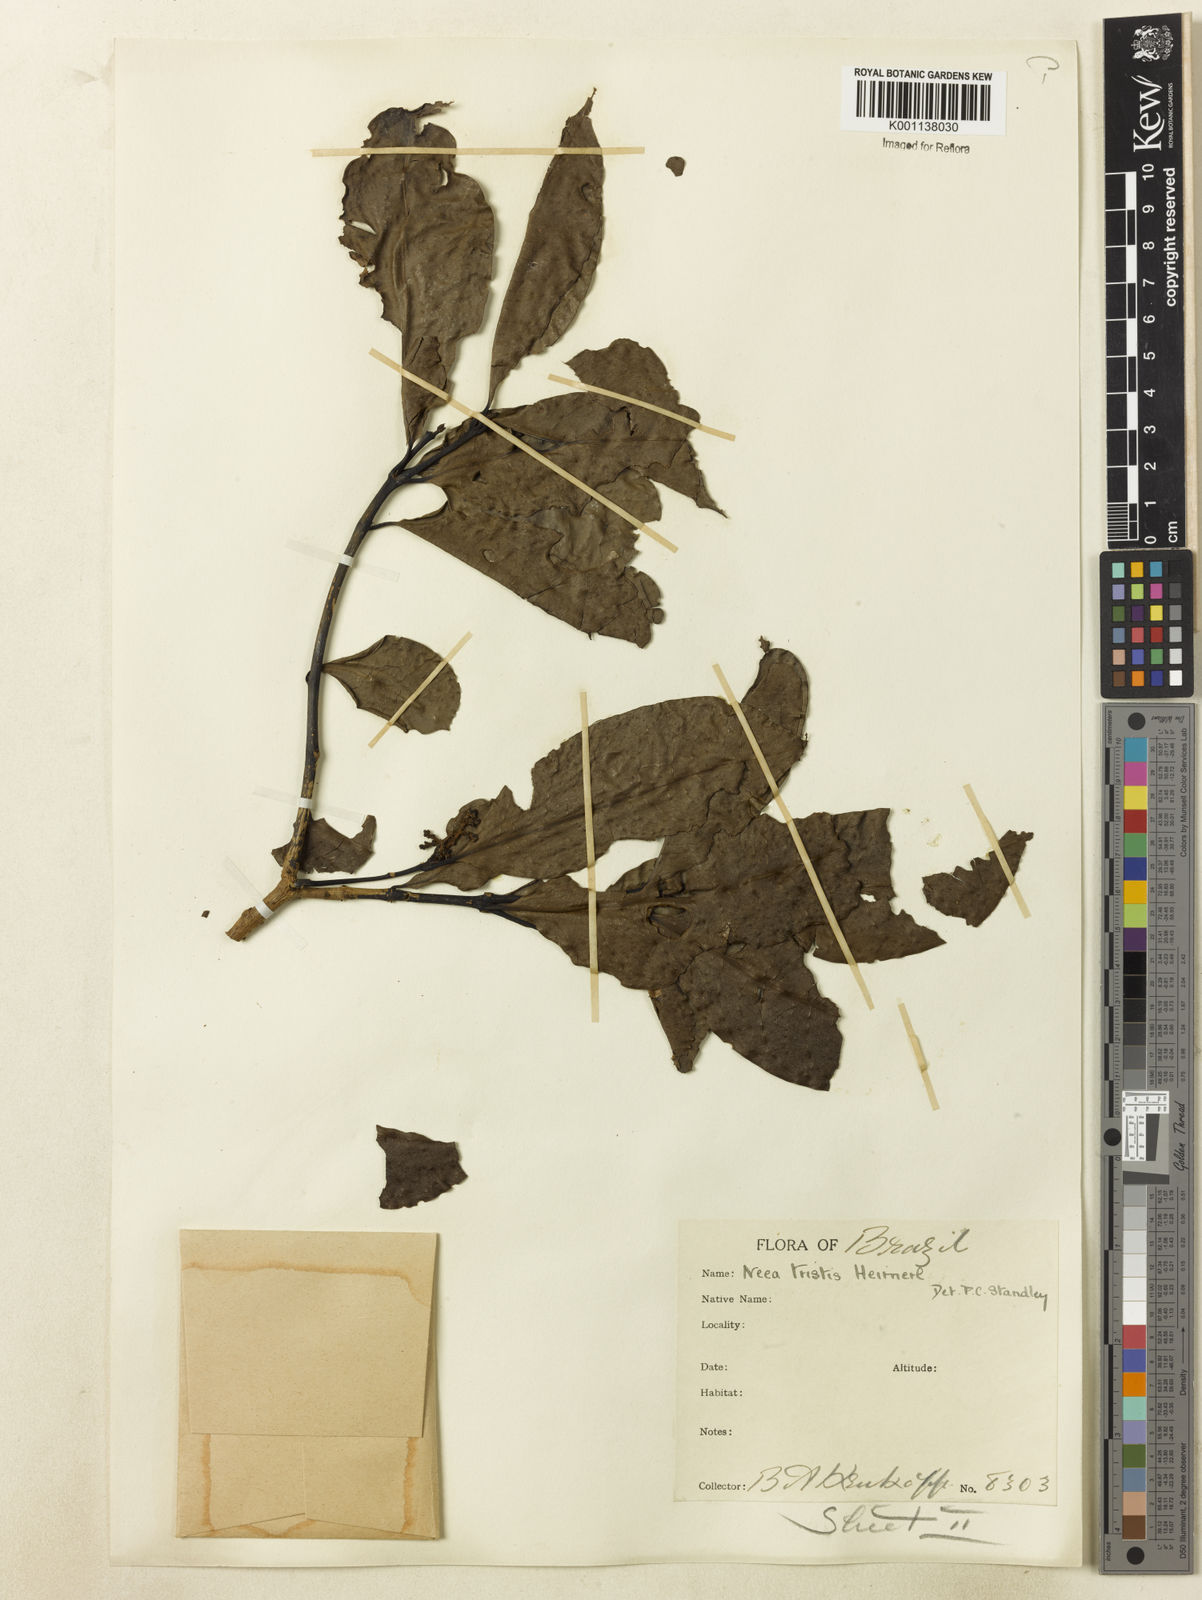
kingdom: Plantae
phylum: Tracheophyta
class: Magnoliopsida
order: Caryophyllales
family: Nyctaginaceae
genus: Neea
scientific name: Neea tristis
